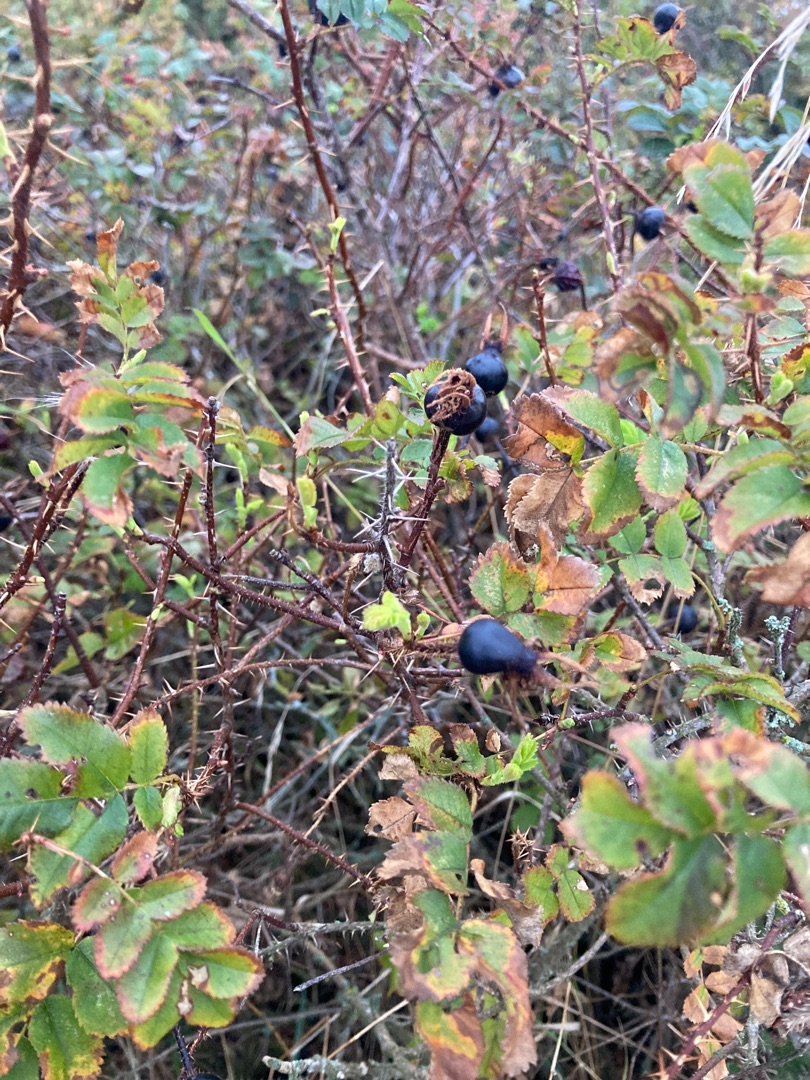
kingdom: Plantae
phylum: Tracheophyta
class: Magnoliopsida
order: Rosales
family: Rosaceae
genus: Rosa
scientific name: Rosa spinosissima
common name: Klit-rose
